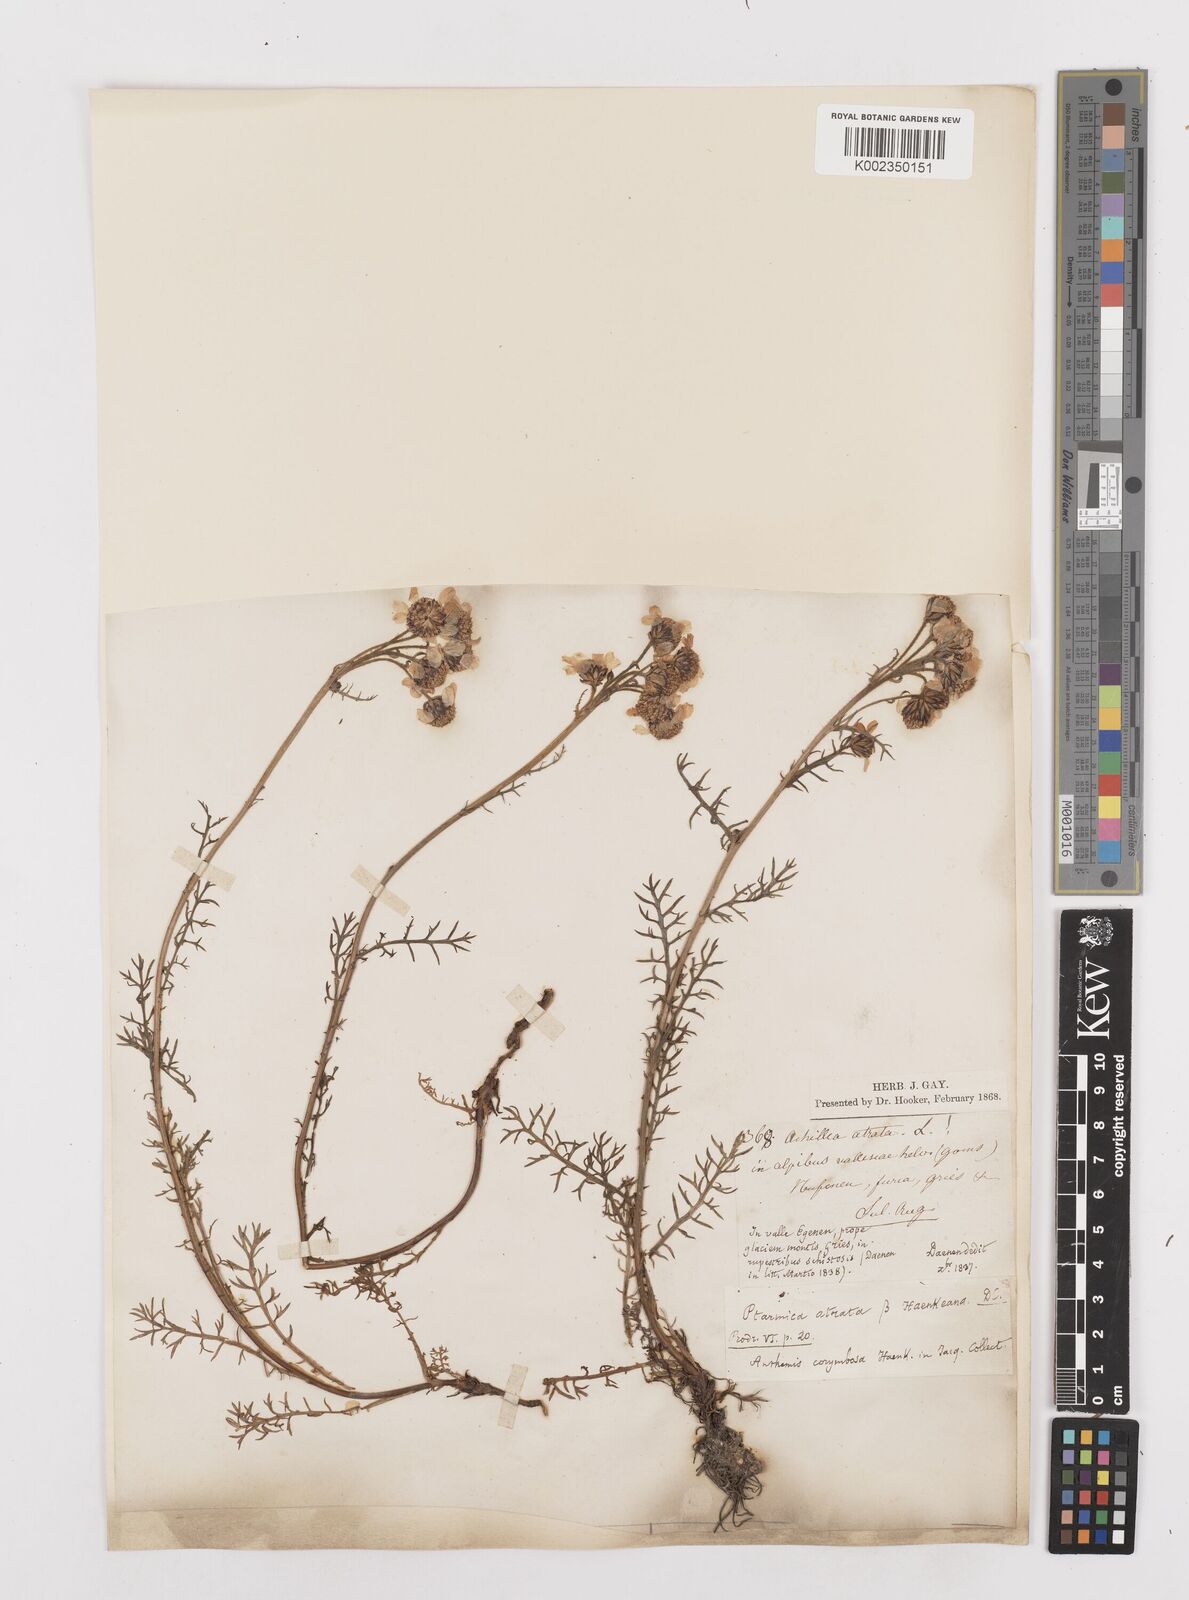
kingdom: Plantae
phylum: Tracheophyta
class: Magnoliopsida
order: Asterales
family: Asteraceae
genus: Achillea
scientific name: Achillea atrata
